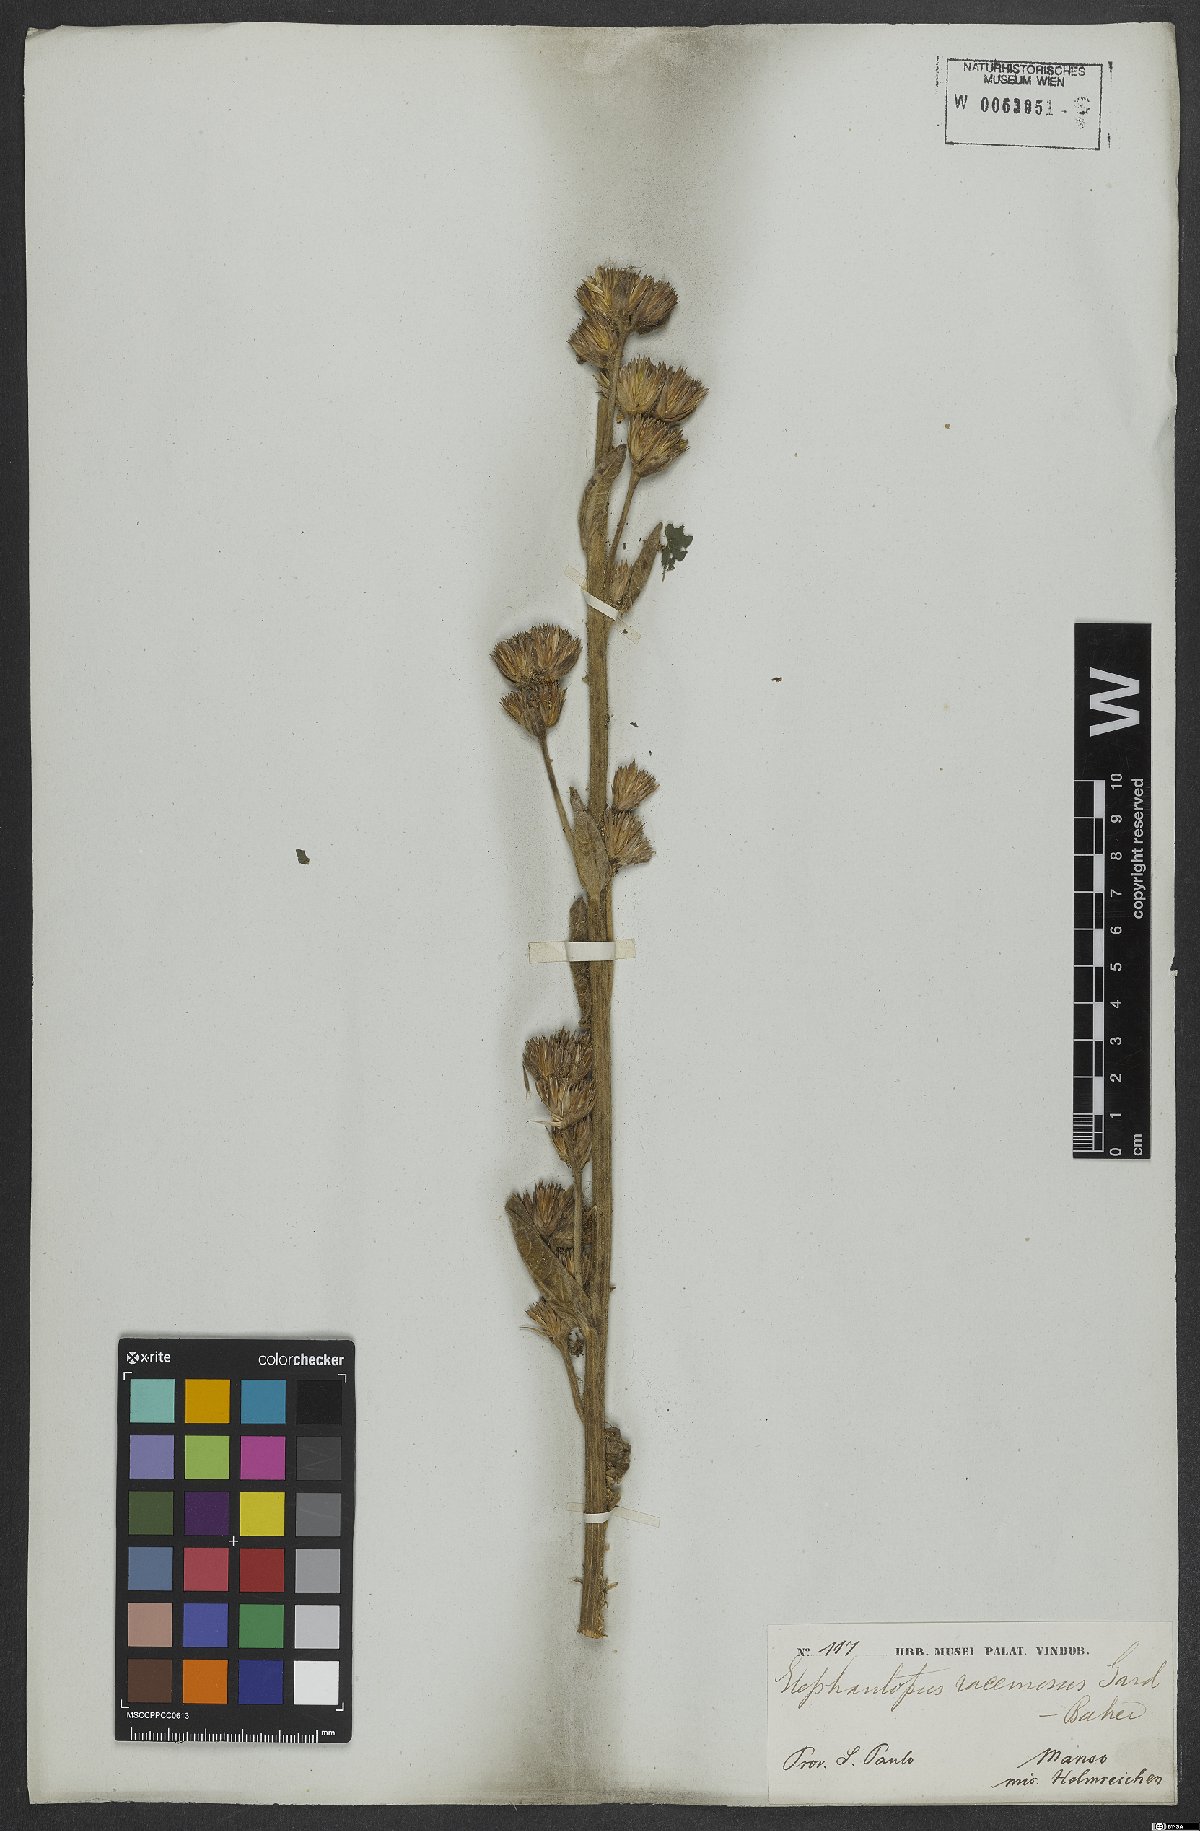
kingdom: Plantae
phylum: Tracheophyta
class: Magnoliopsida
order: Asterales
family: Asteraceae
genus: Elephantopus
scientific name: Elephantopus racemosus
